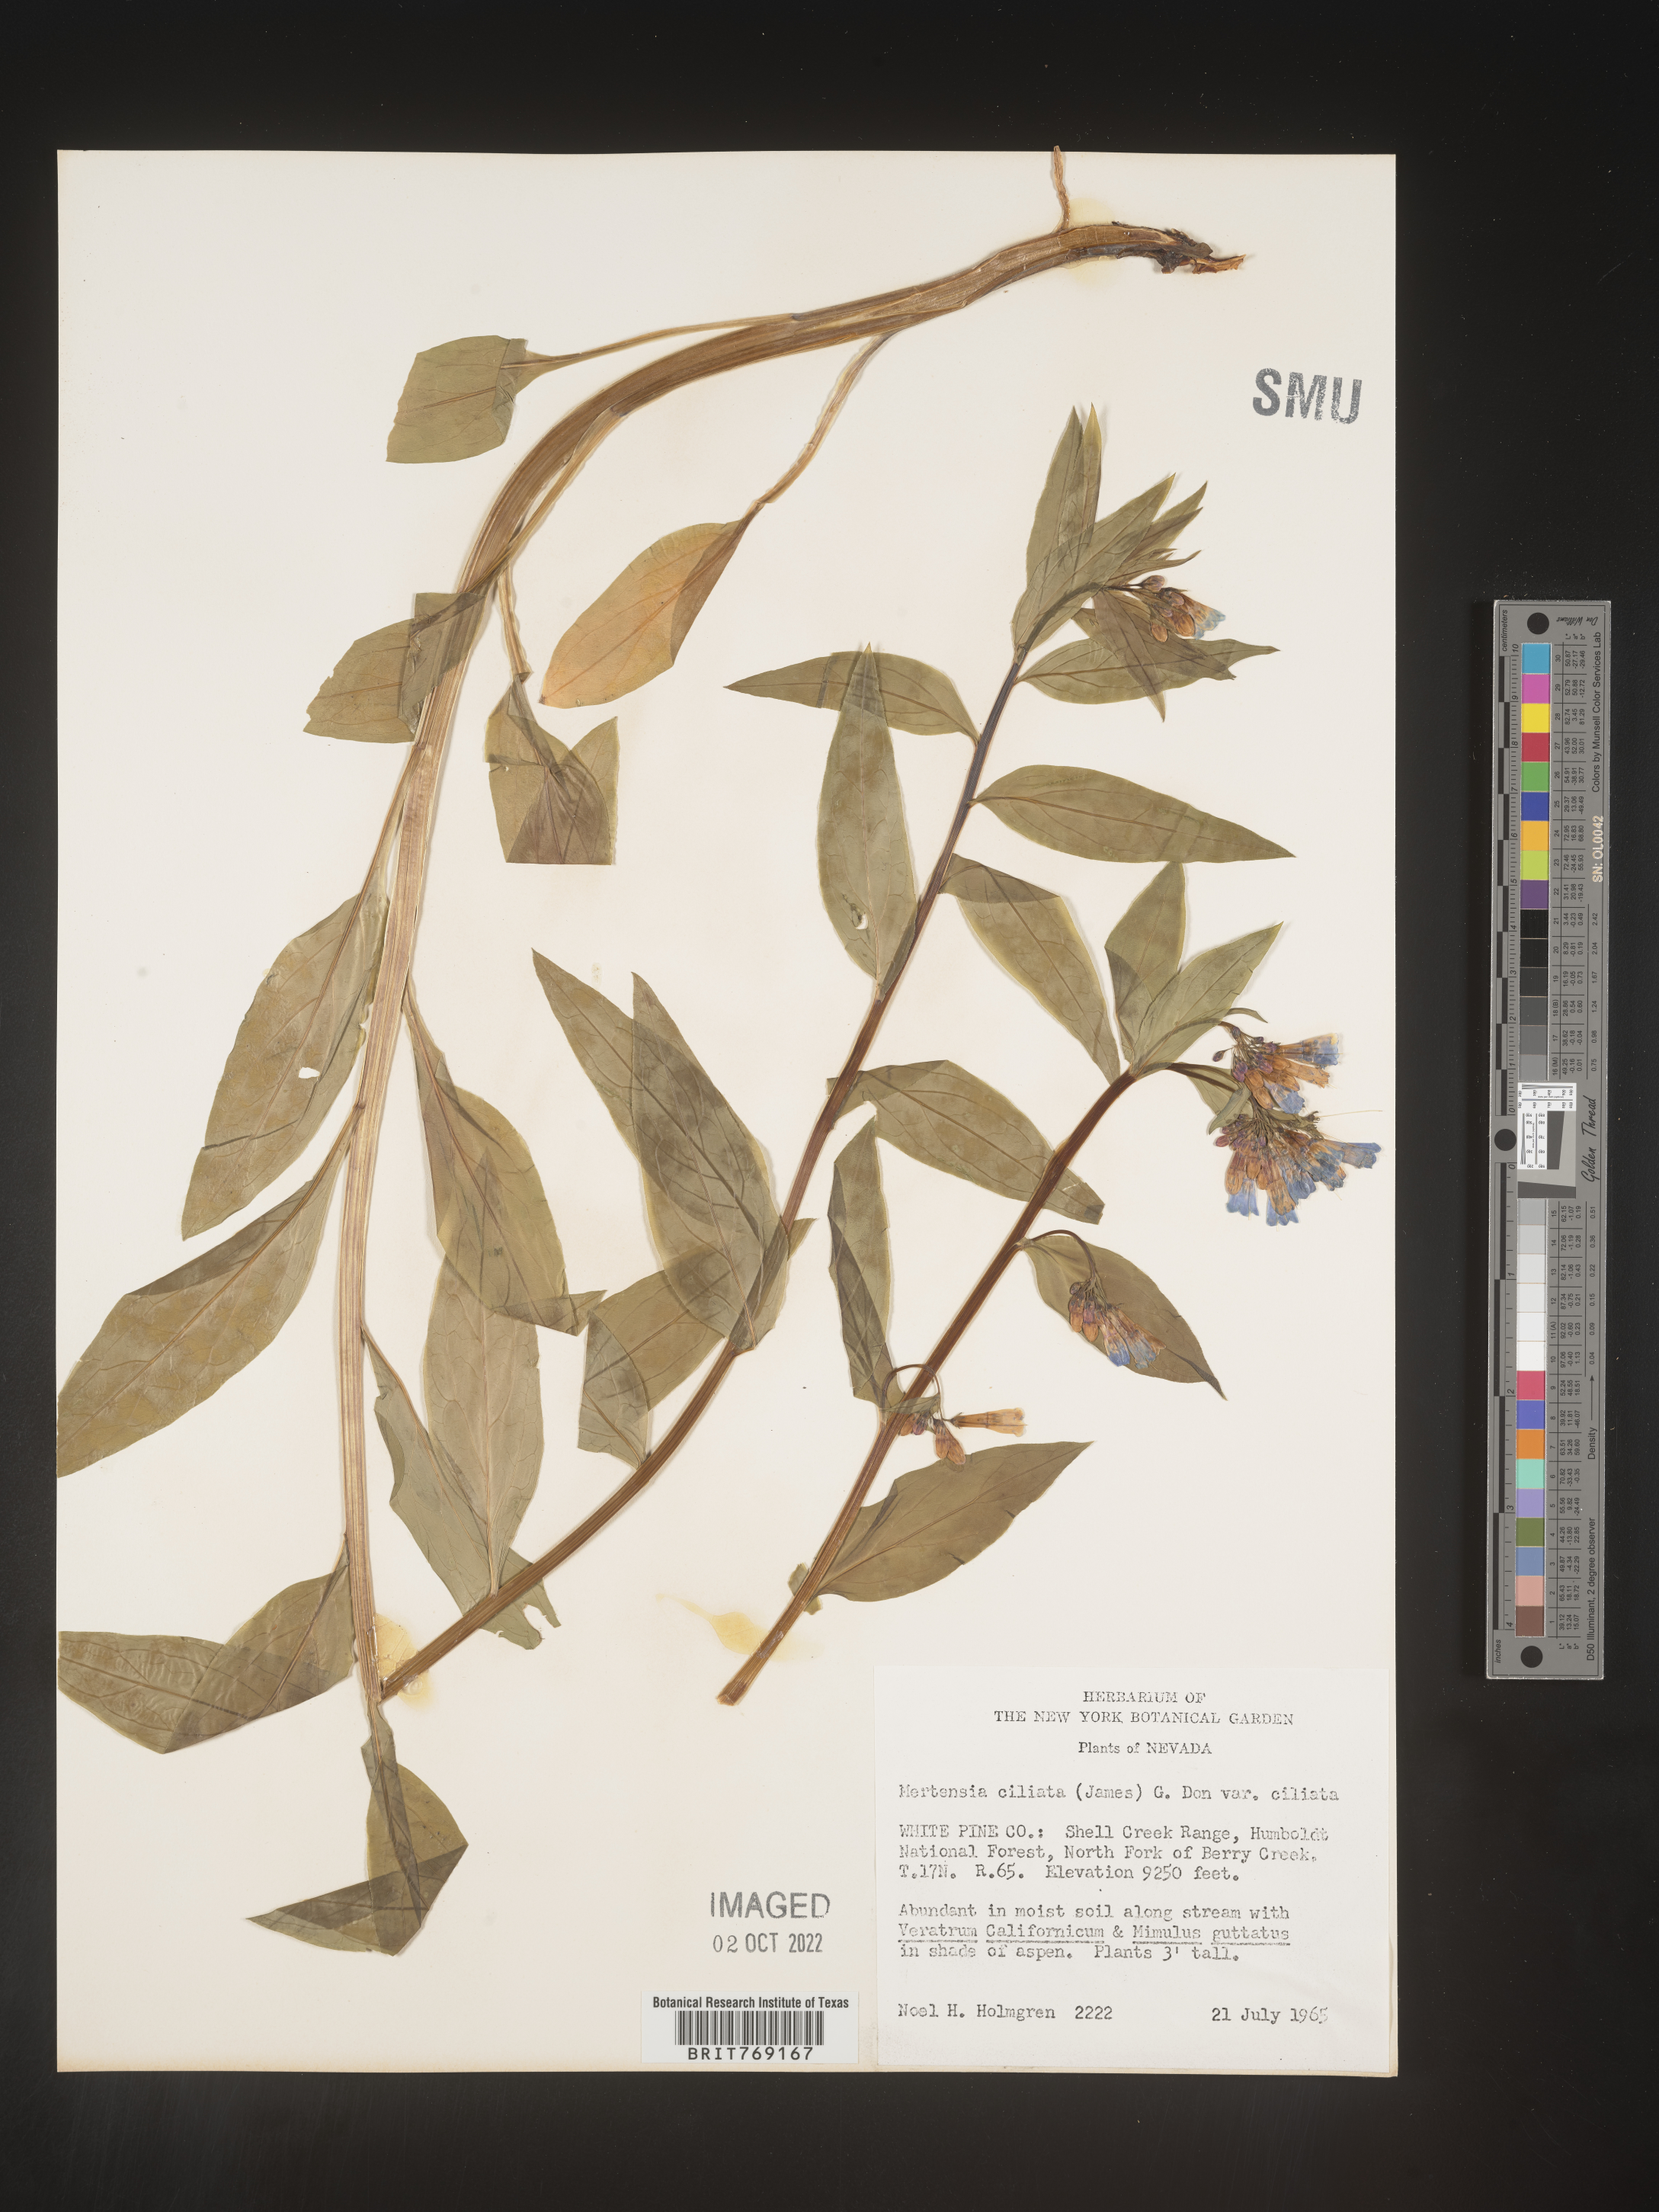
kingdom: Plantae
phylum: Tracheophyta
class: Magnoliopsida
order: Boraginales
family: Boraginaceae
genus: Mertensia
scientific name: Mertensia
